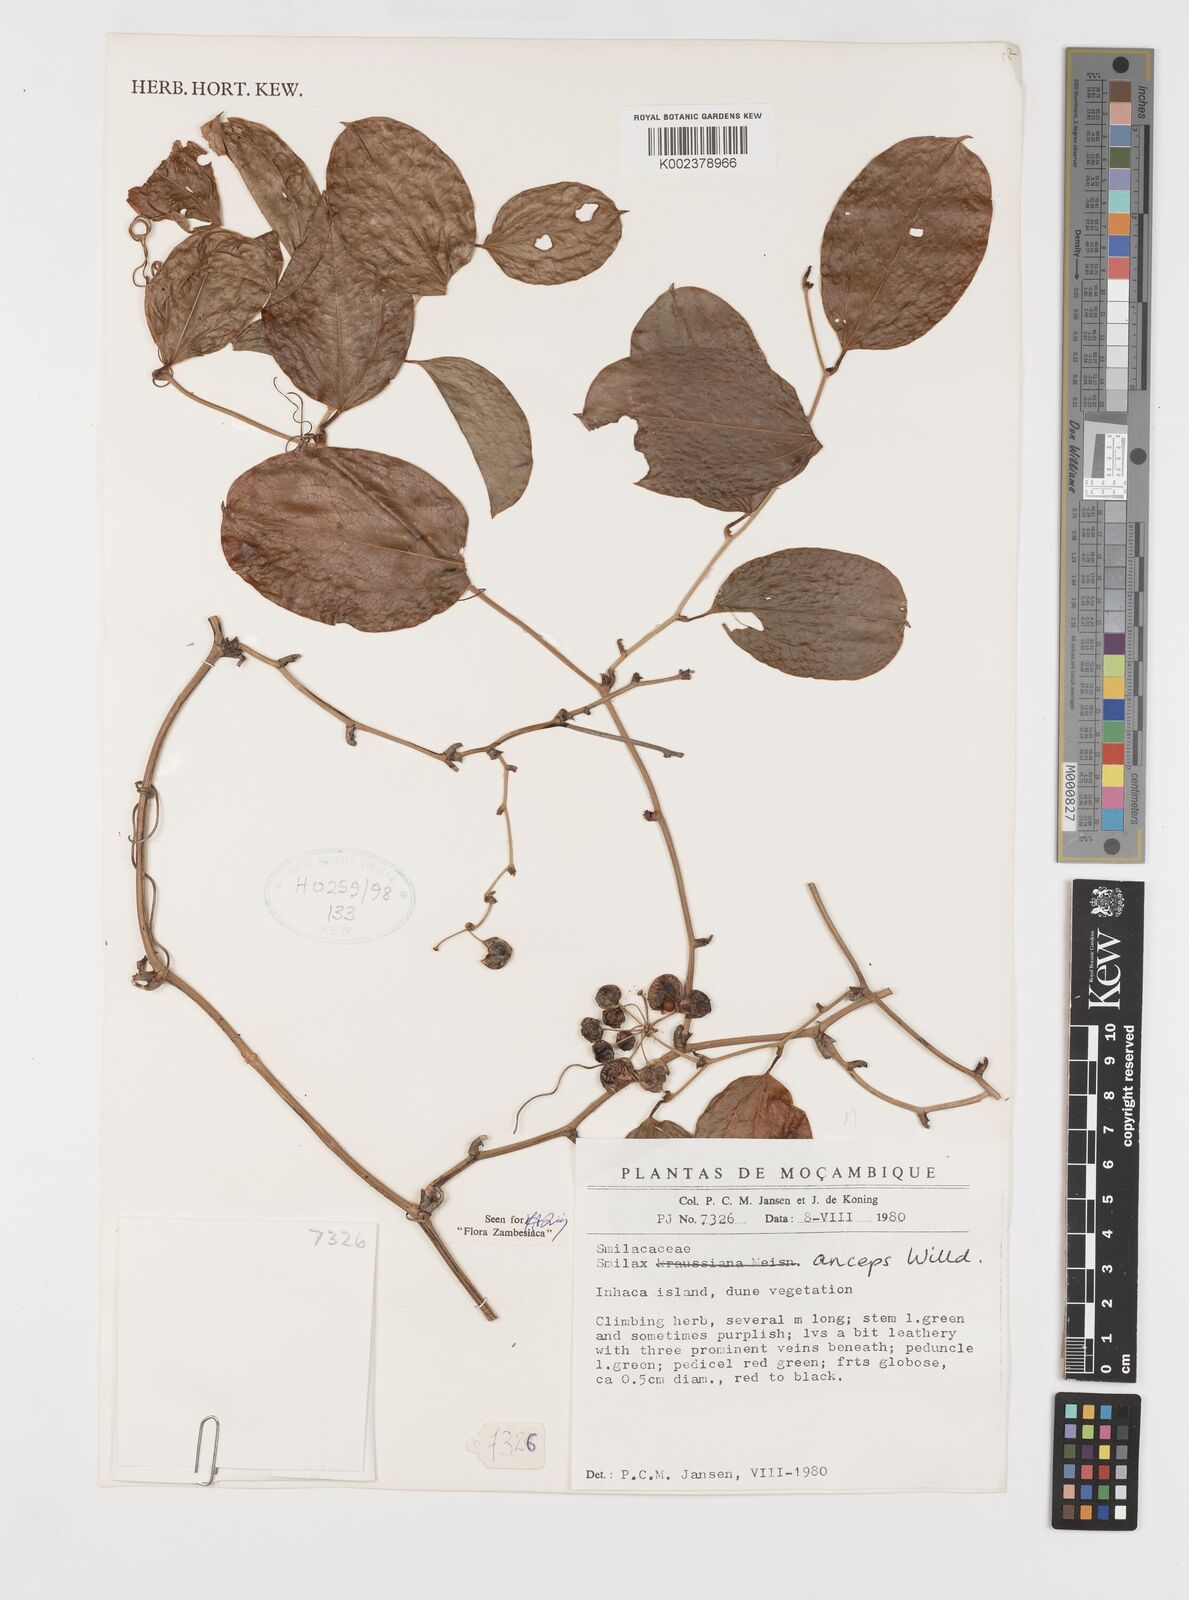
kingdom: Plantae
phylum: Tracheophyta
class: Liliopsida
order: Liliales
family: Smilacaceae
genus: Smilax
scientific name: Smilax anceps
